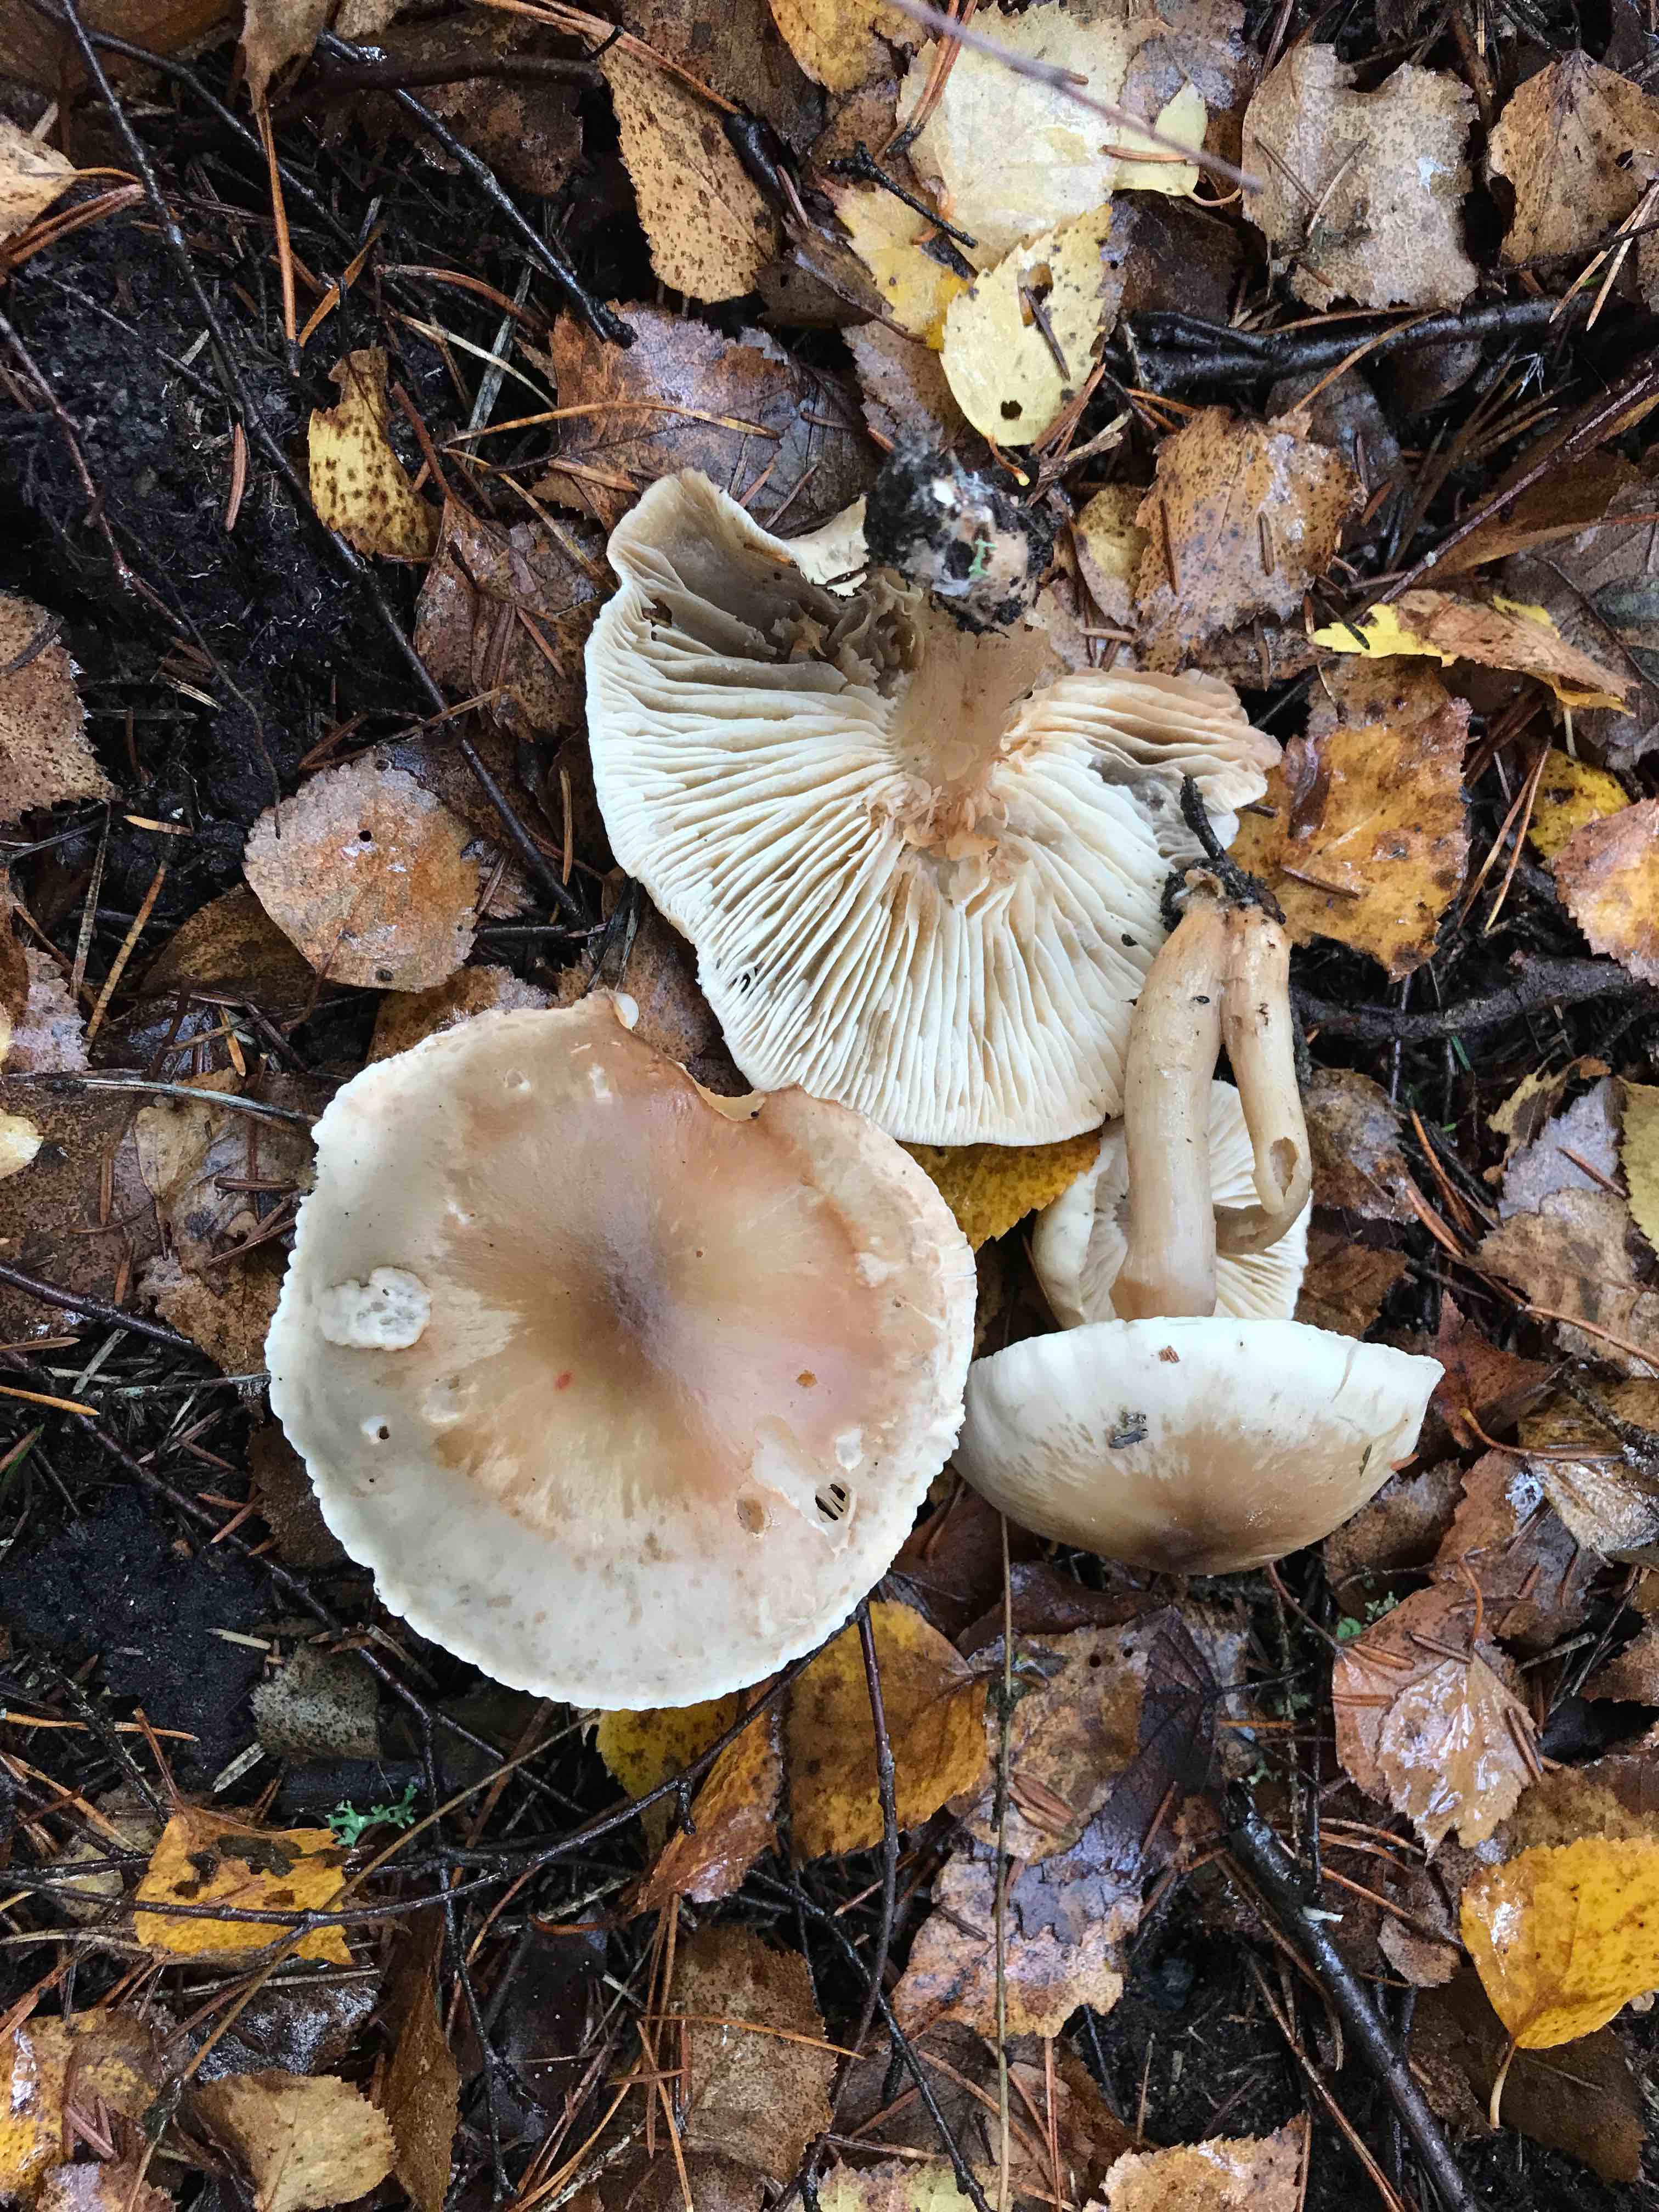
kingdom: Fungi
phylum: Basidiomycota
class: Agaricomycetes
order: Agaricales
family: Omphalotaceae
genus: Rhodocollybia
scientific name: Rhodocollybia asema
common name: horngrå fladhat
